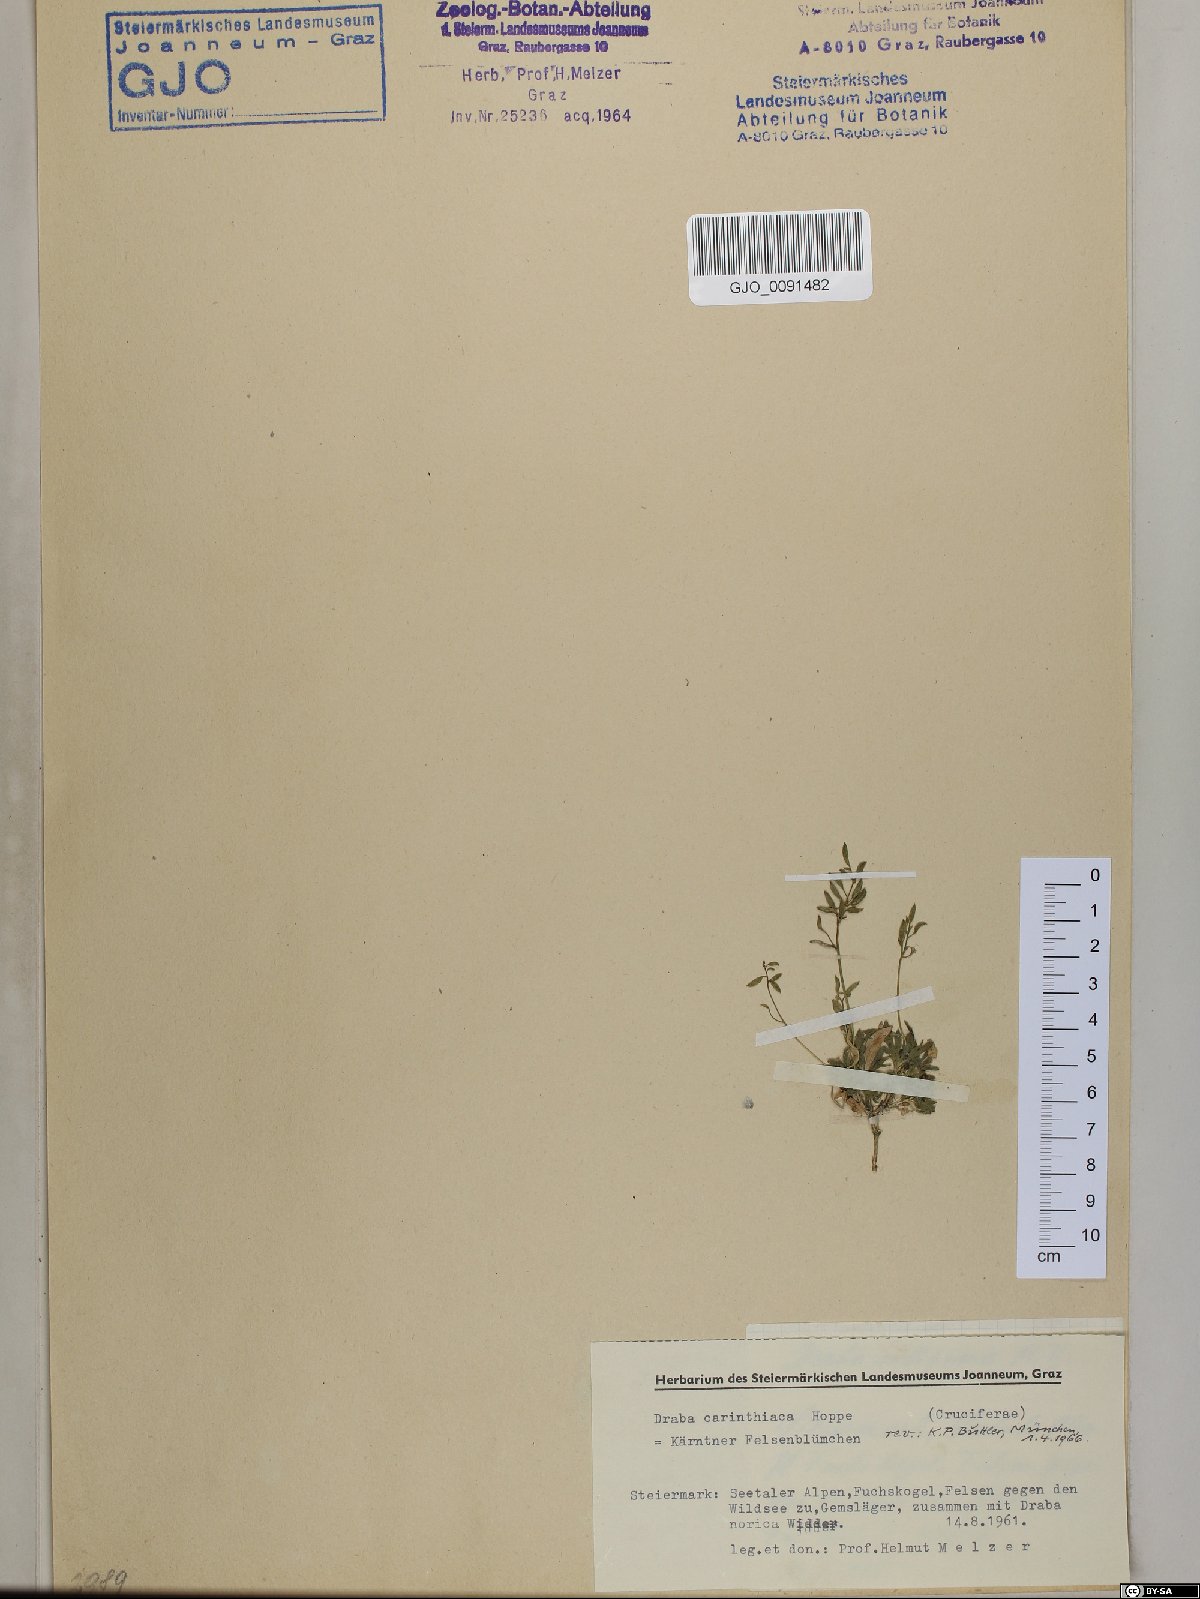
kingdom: Plantae
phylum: Tracheophyta
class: Magnoliopsida
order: Brassicales
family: Brassicaceae
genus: Draba
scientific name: Draba siliquosa
